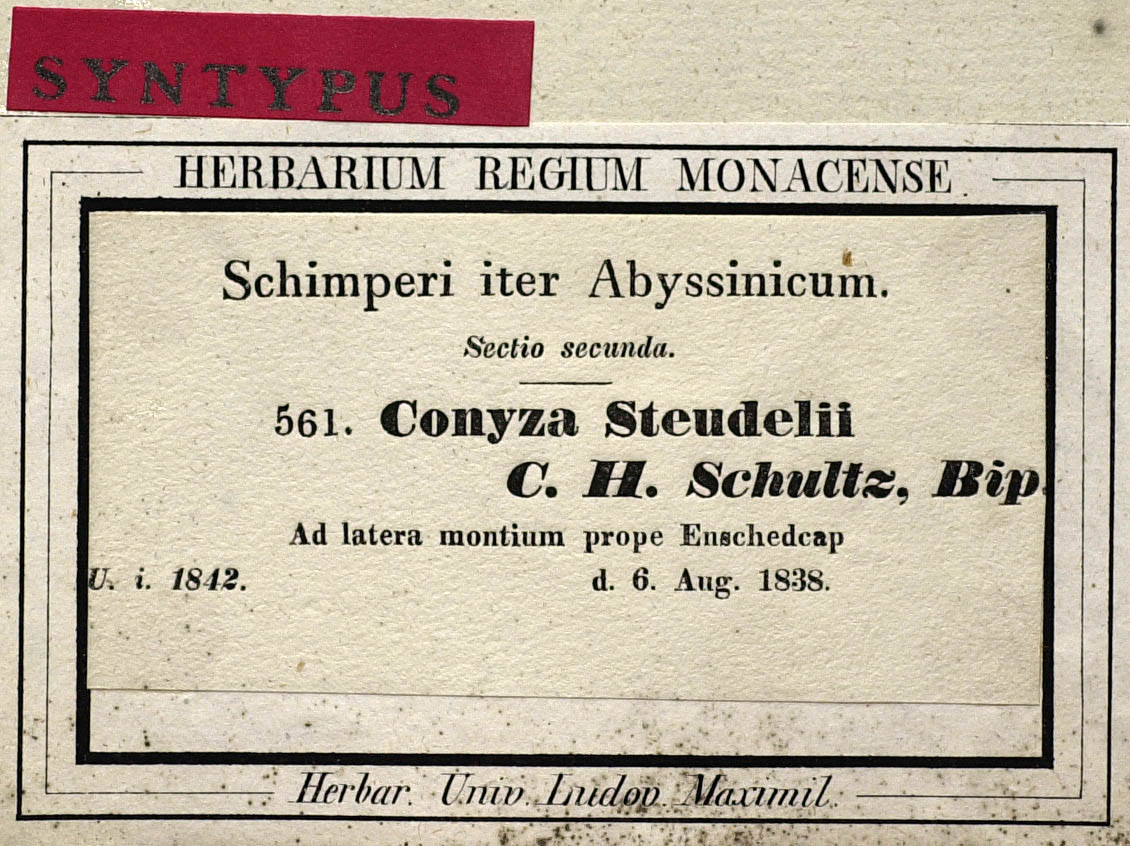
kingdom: Plantae
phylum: Tracheophyta
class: Magnoliopsida
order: Asterales
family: Asteraceae
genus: Conyza
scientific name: Conyza steudelii
